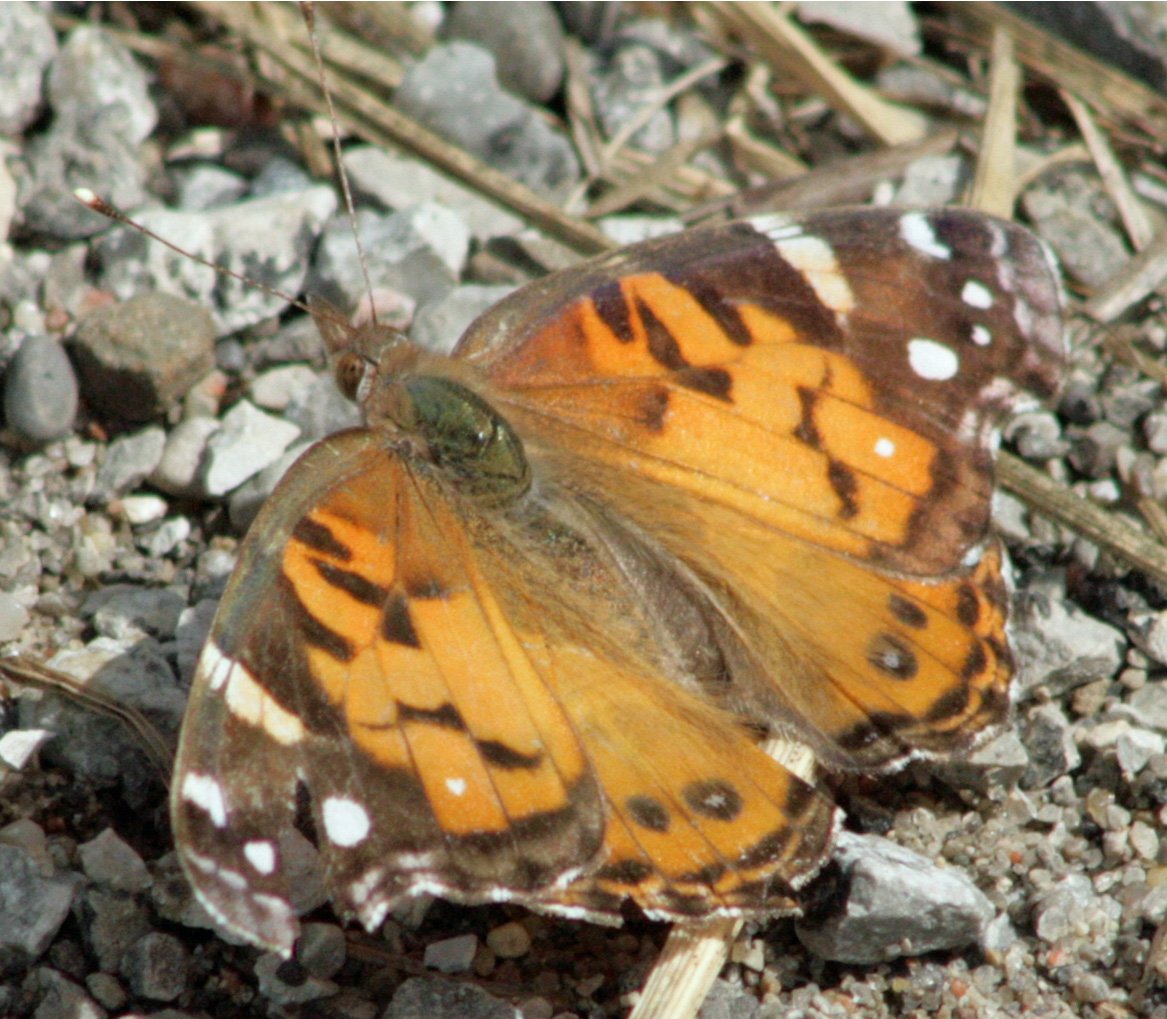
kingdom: Animalia
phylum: Arthropoda
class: Insecta
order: Lepidoptera
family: Nymphalidae
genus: Vanessa
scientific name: Vanessa virginiensis
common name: American Lady
